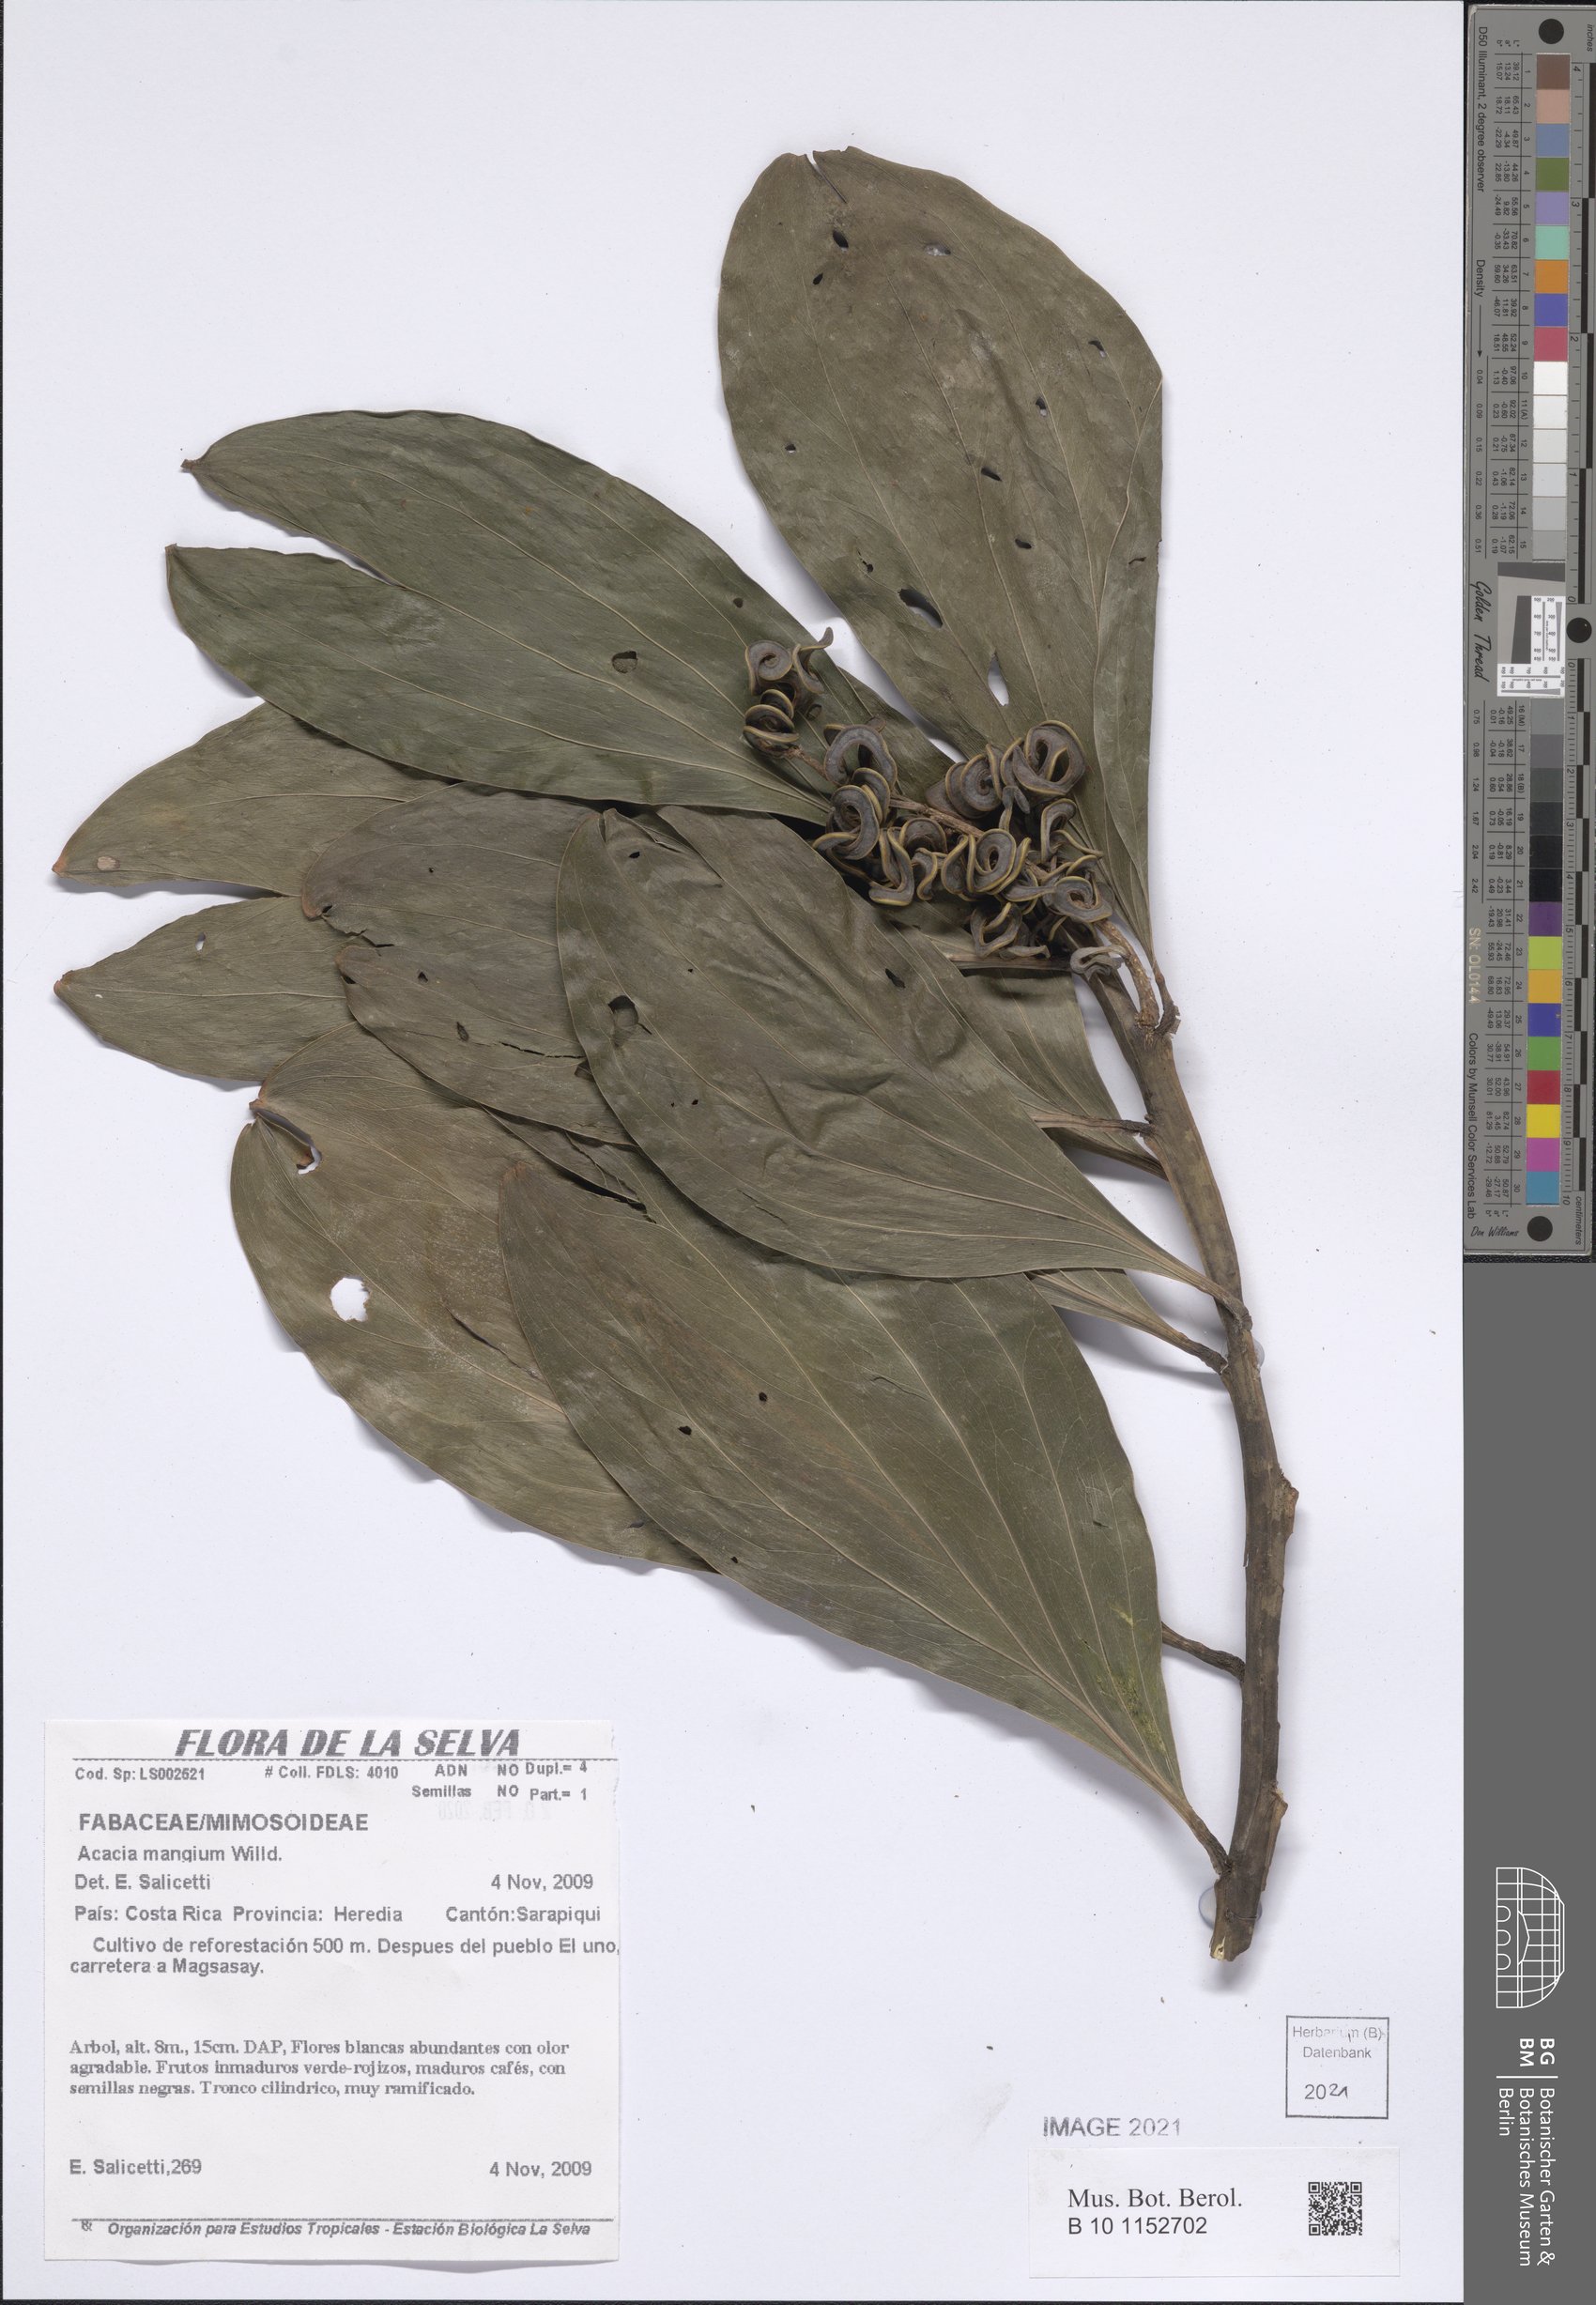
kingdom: Plantae
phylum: Tracheophyta
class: Magnoliopsida
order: Fabales
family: Fabaceae
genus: Acacia
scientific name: Acacia mangium
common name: Black wattle
